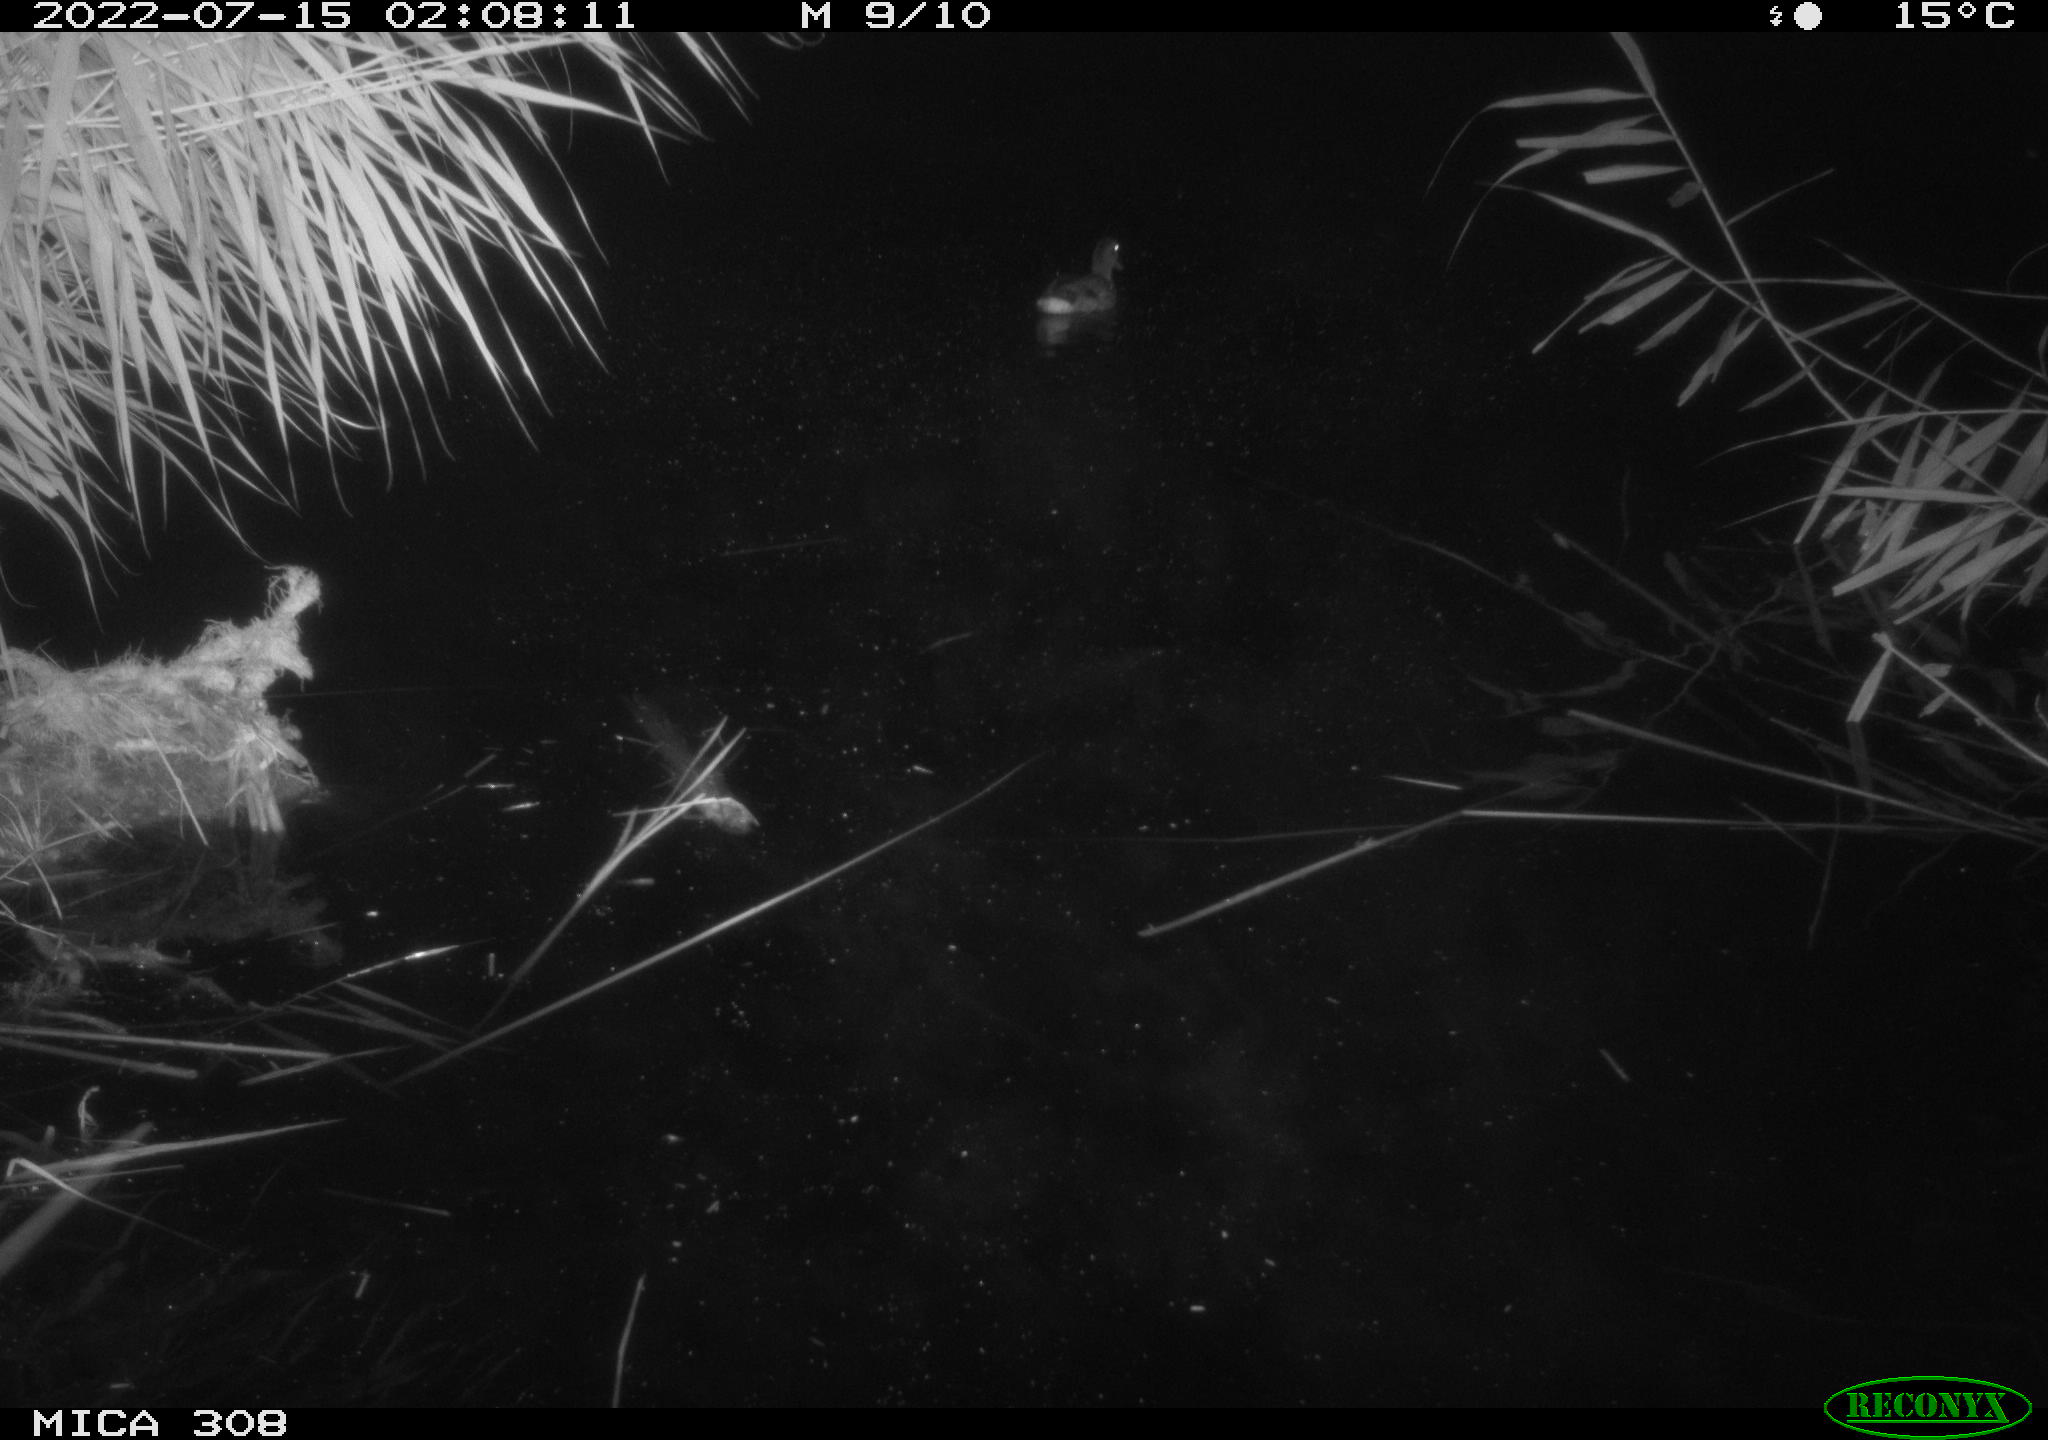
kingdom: Animalia
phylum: Chordata
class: Aves
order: Anseriformes
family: Anatidae
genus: Anas
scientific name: Anas platyrhynchos
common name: Mallard
